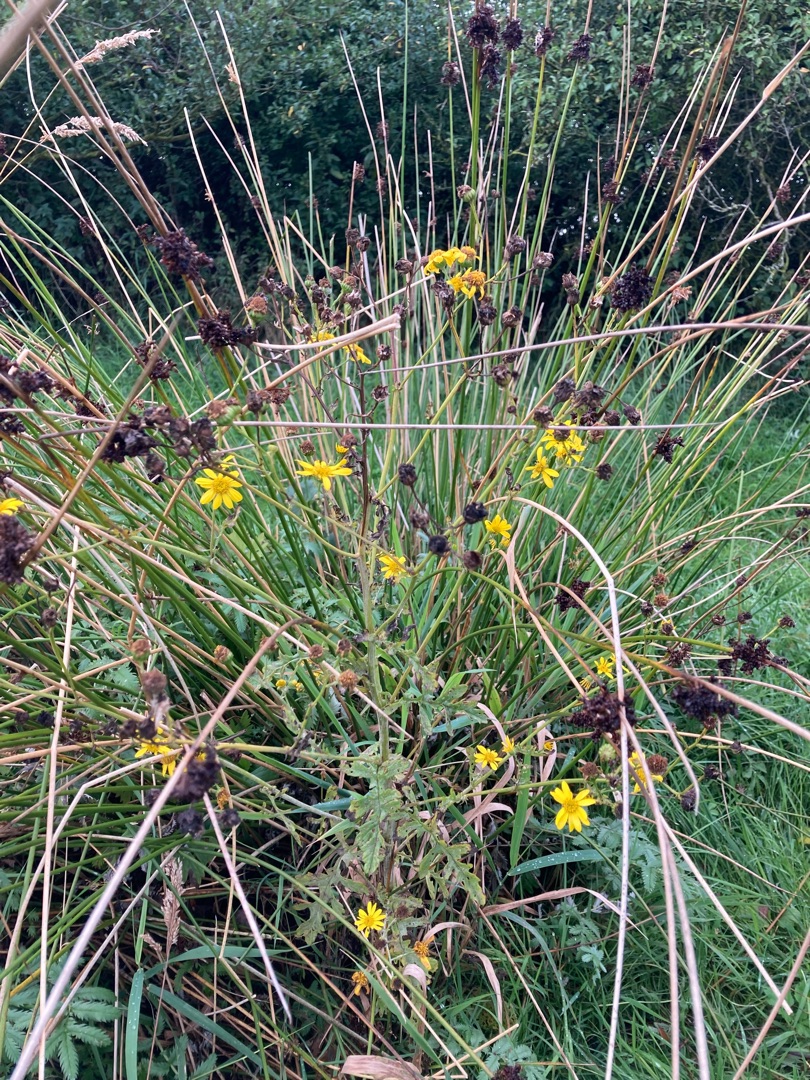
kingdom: Plantae
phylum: Tracheophyta
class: Magnoliopsida
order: Asterales
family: Asteraceae
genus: Jacobaea
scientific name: Jacobaea aquatica
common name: Vand-brandbæger
